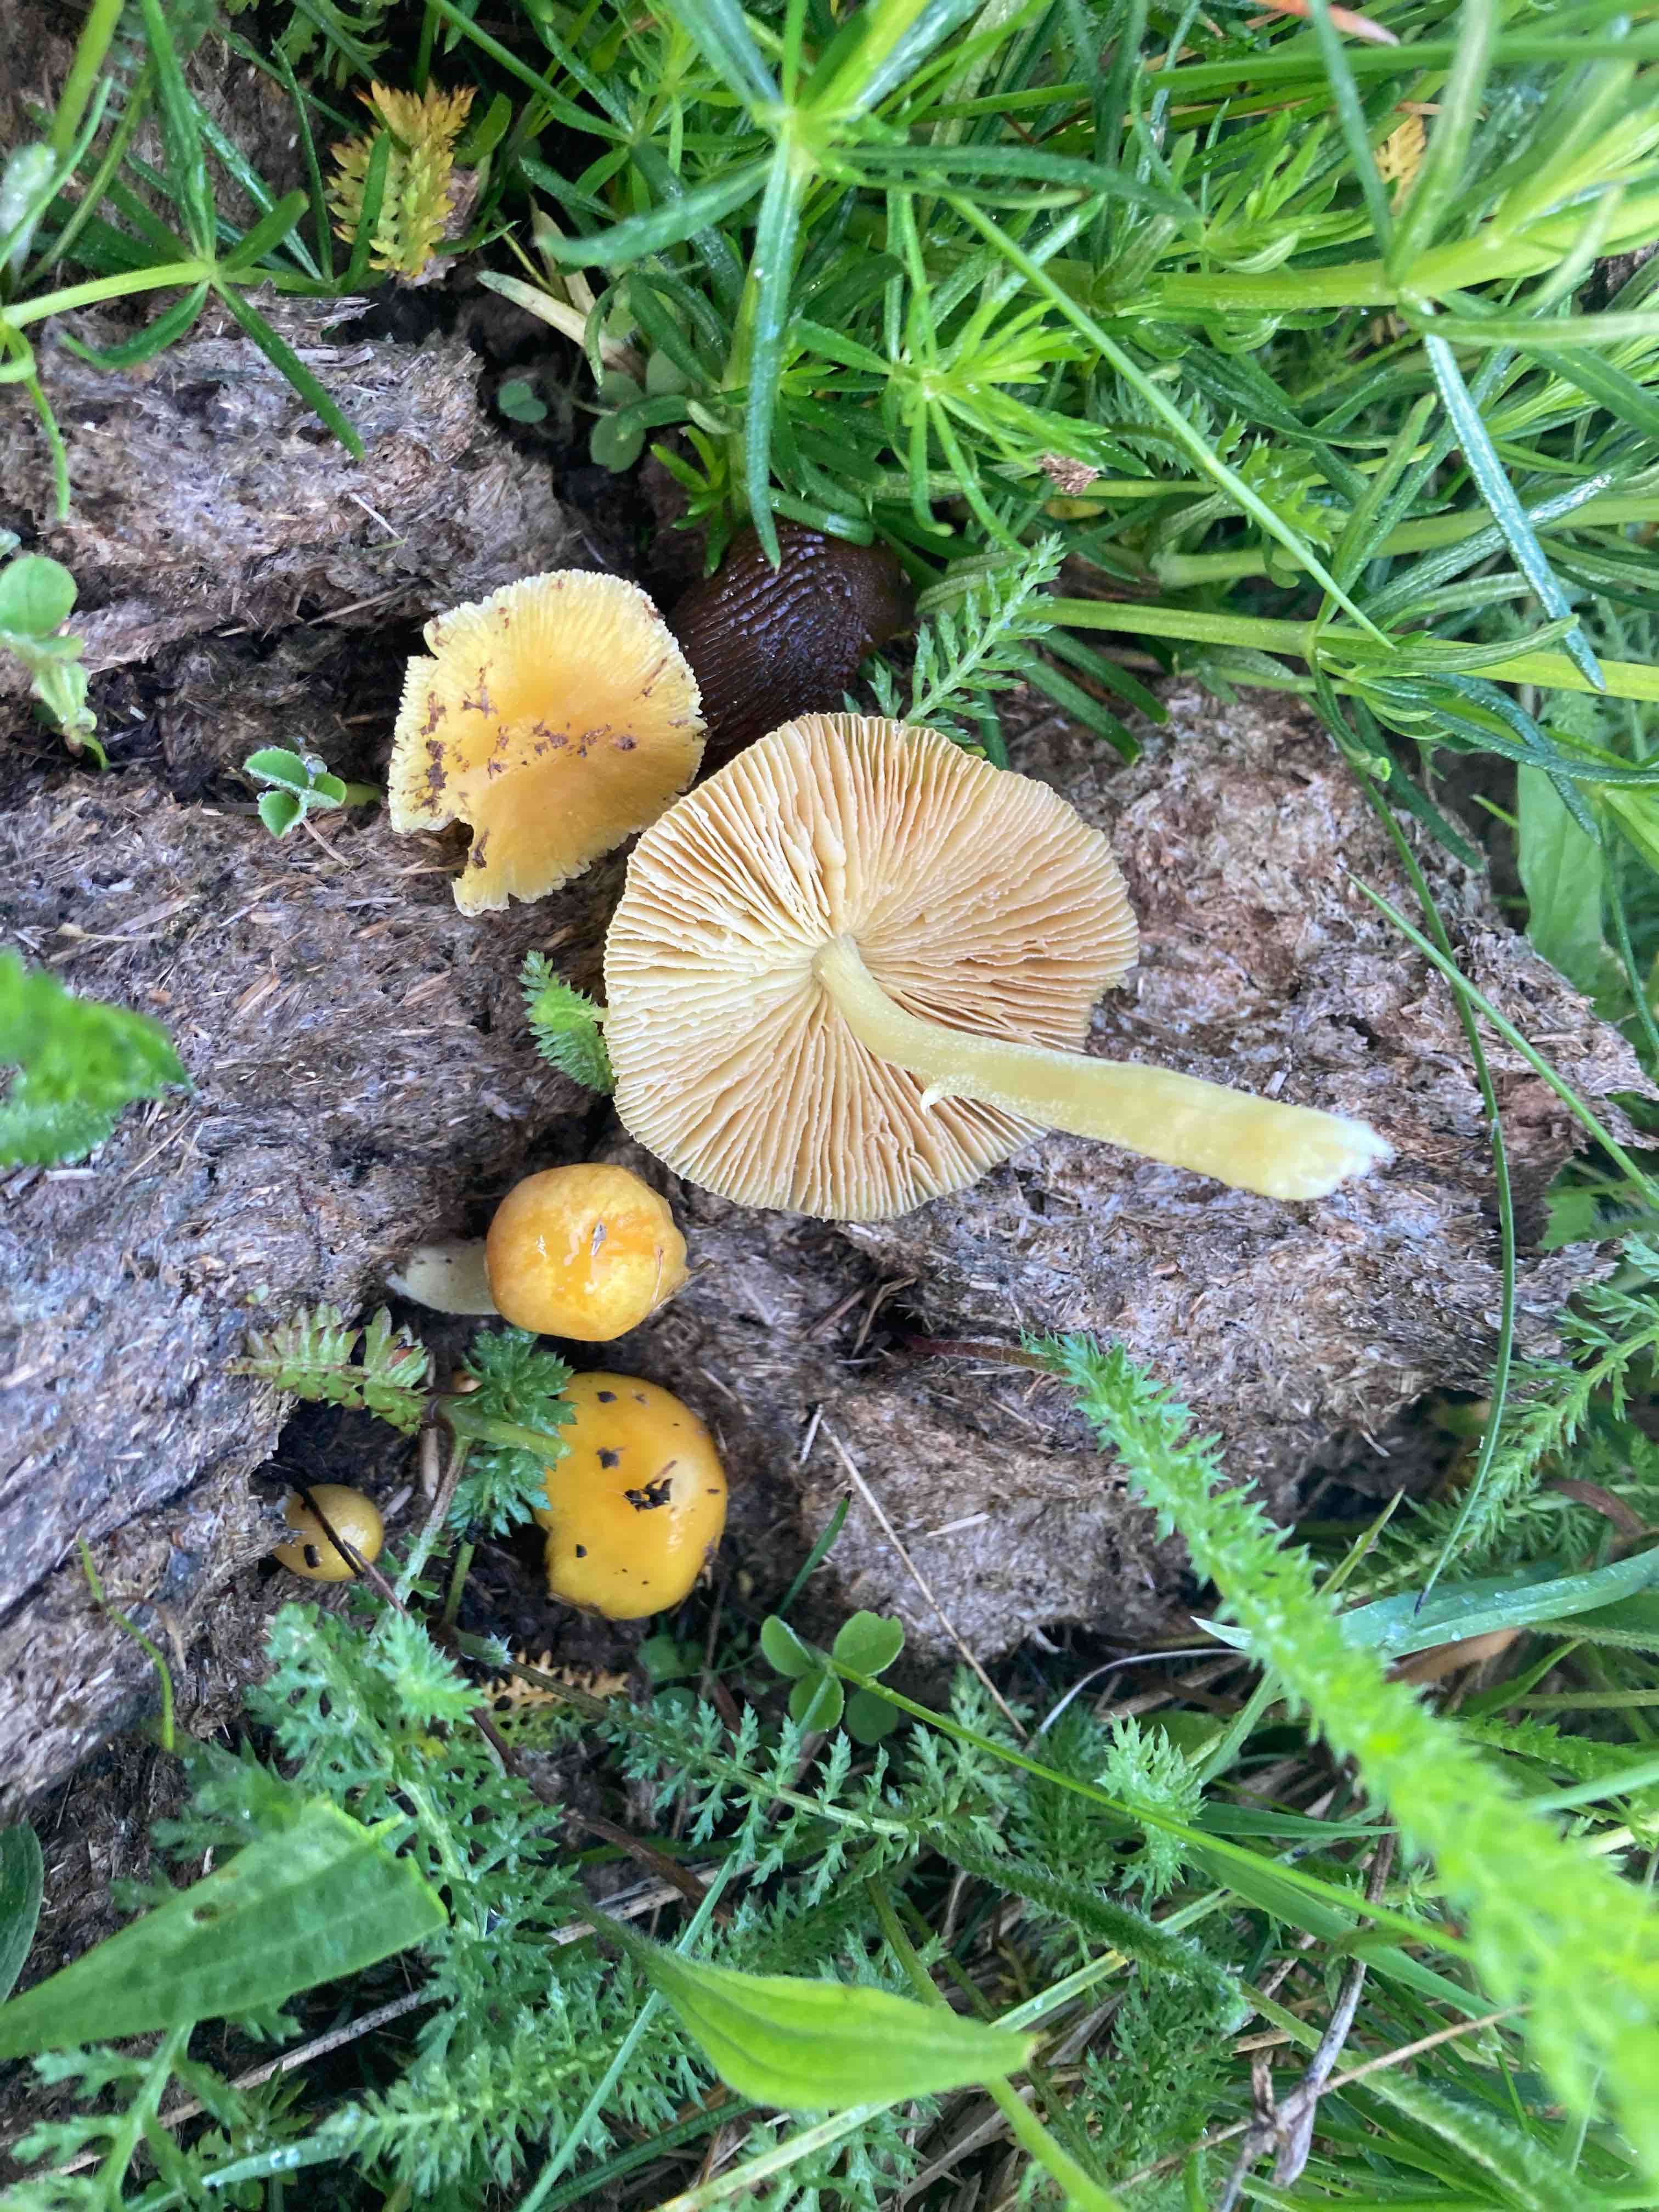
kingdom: Fungi
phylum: Basidiomycota
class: Agaricomycetes
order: Agaricales
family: Bolbitiaceae
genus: Bolbitius
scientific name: Bolbitius titubans
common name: almindelig gulhat
